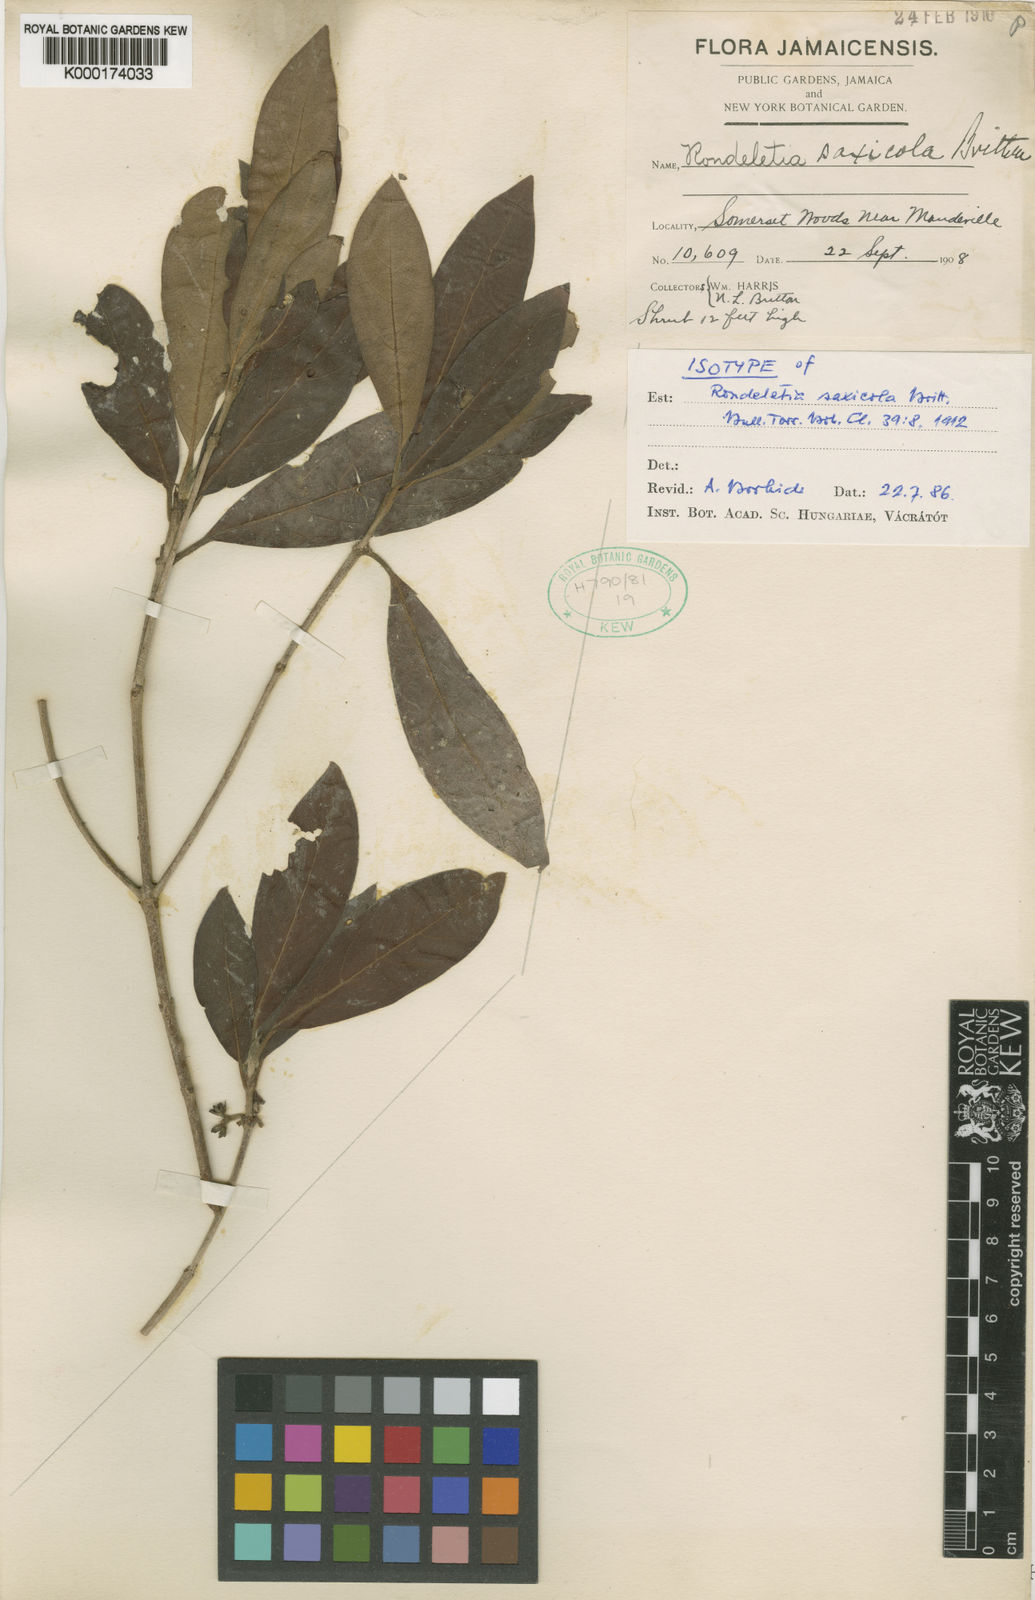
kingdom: Plantae
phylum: Tracheophyta
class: Magnoliopsida
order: Gentianales
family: Rubiaceae
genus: Rondeletia
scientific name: Rondeletia saxicola
